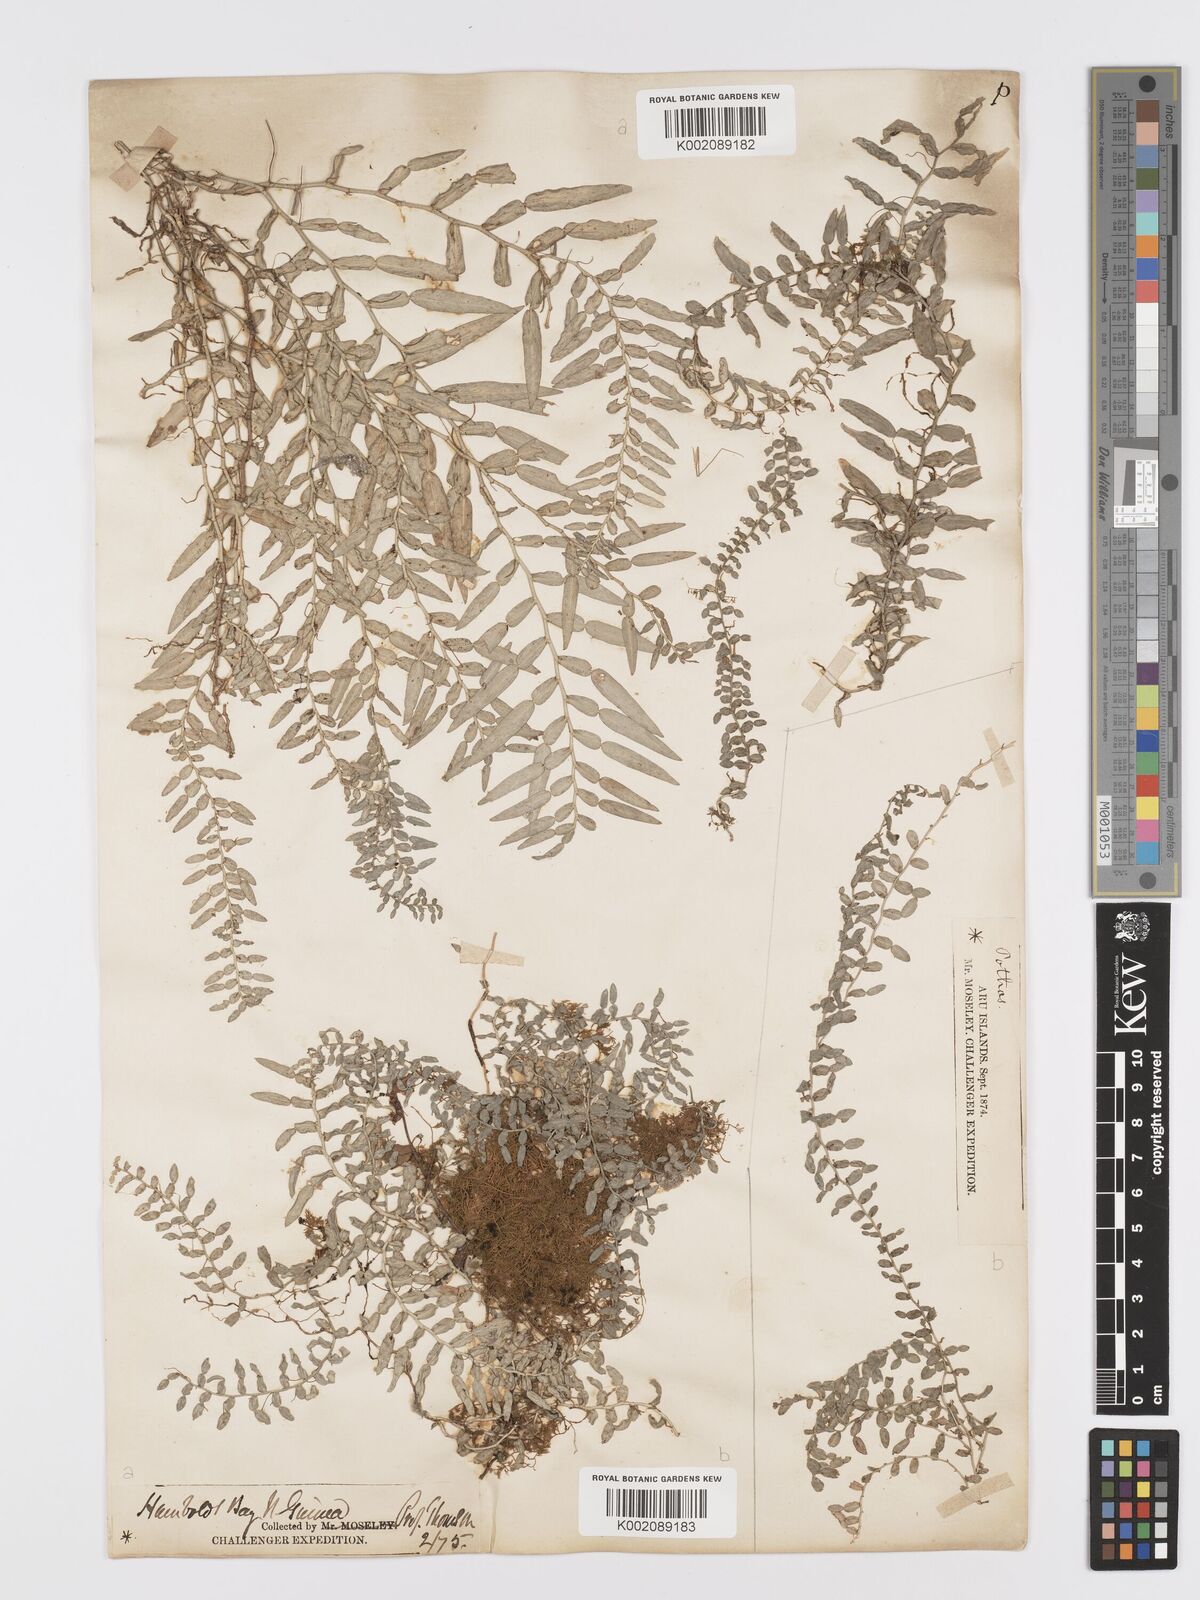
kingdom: Plantae
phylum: Tracheophyta
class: Liliopsida
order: Alismatales
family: Araceae
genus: Pothos
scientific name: Pothos
